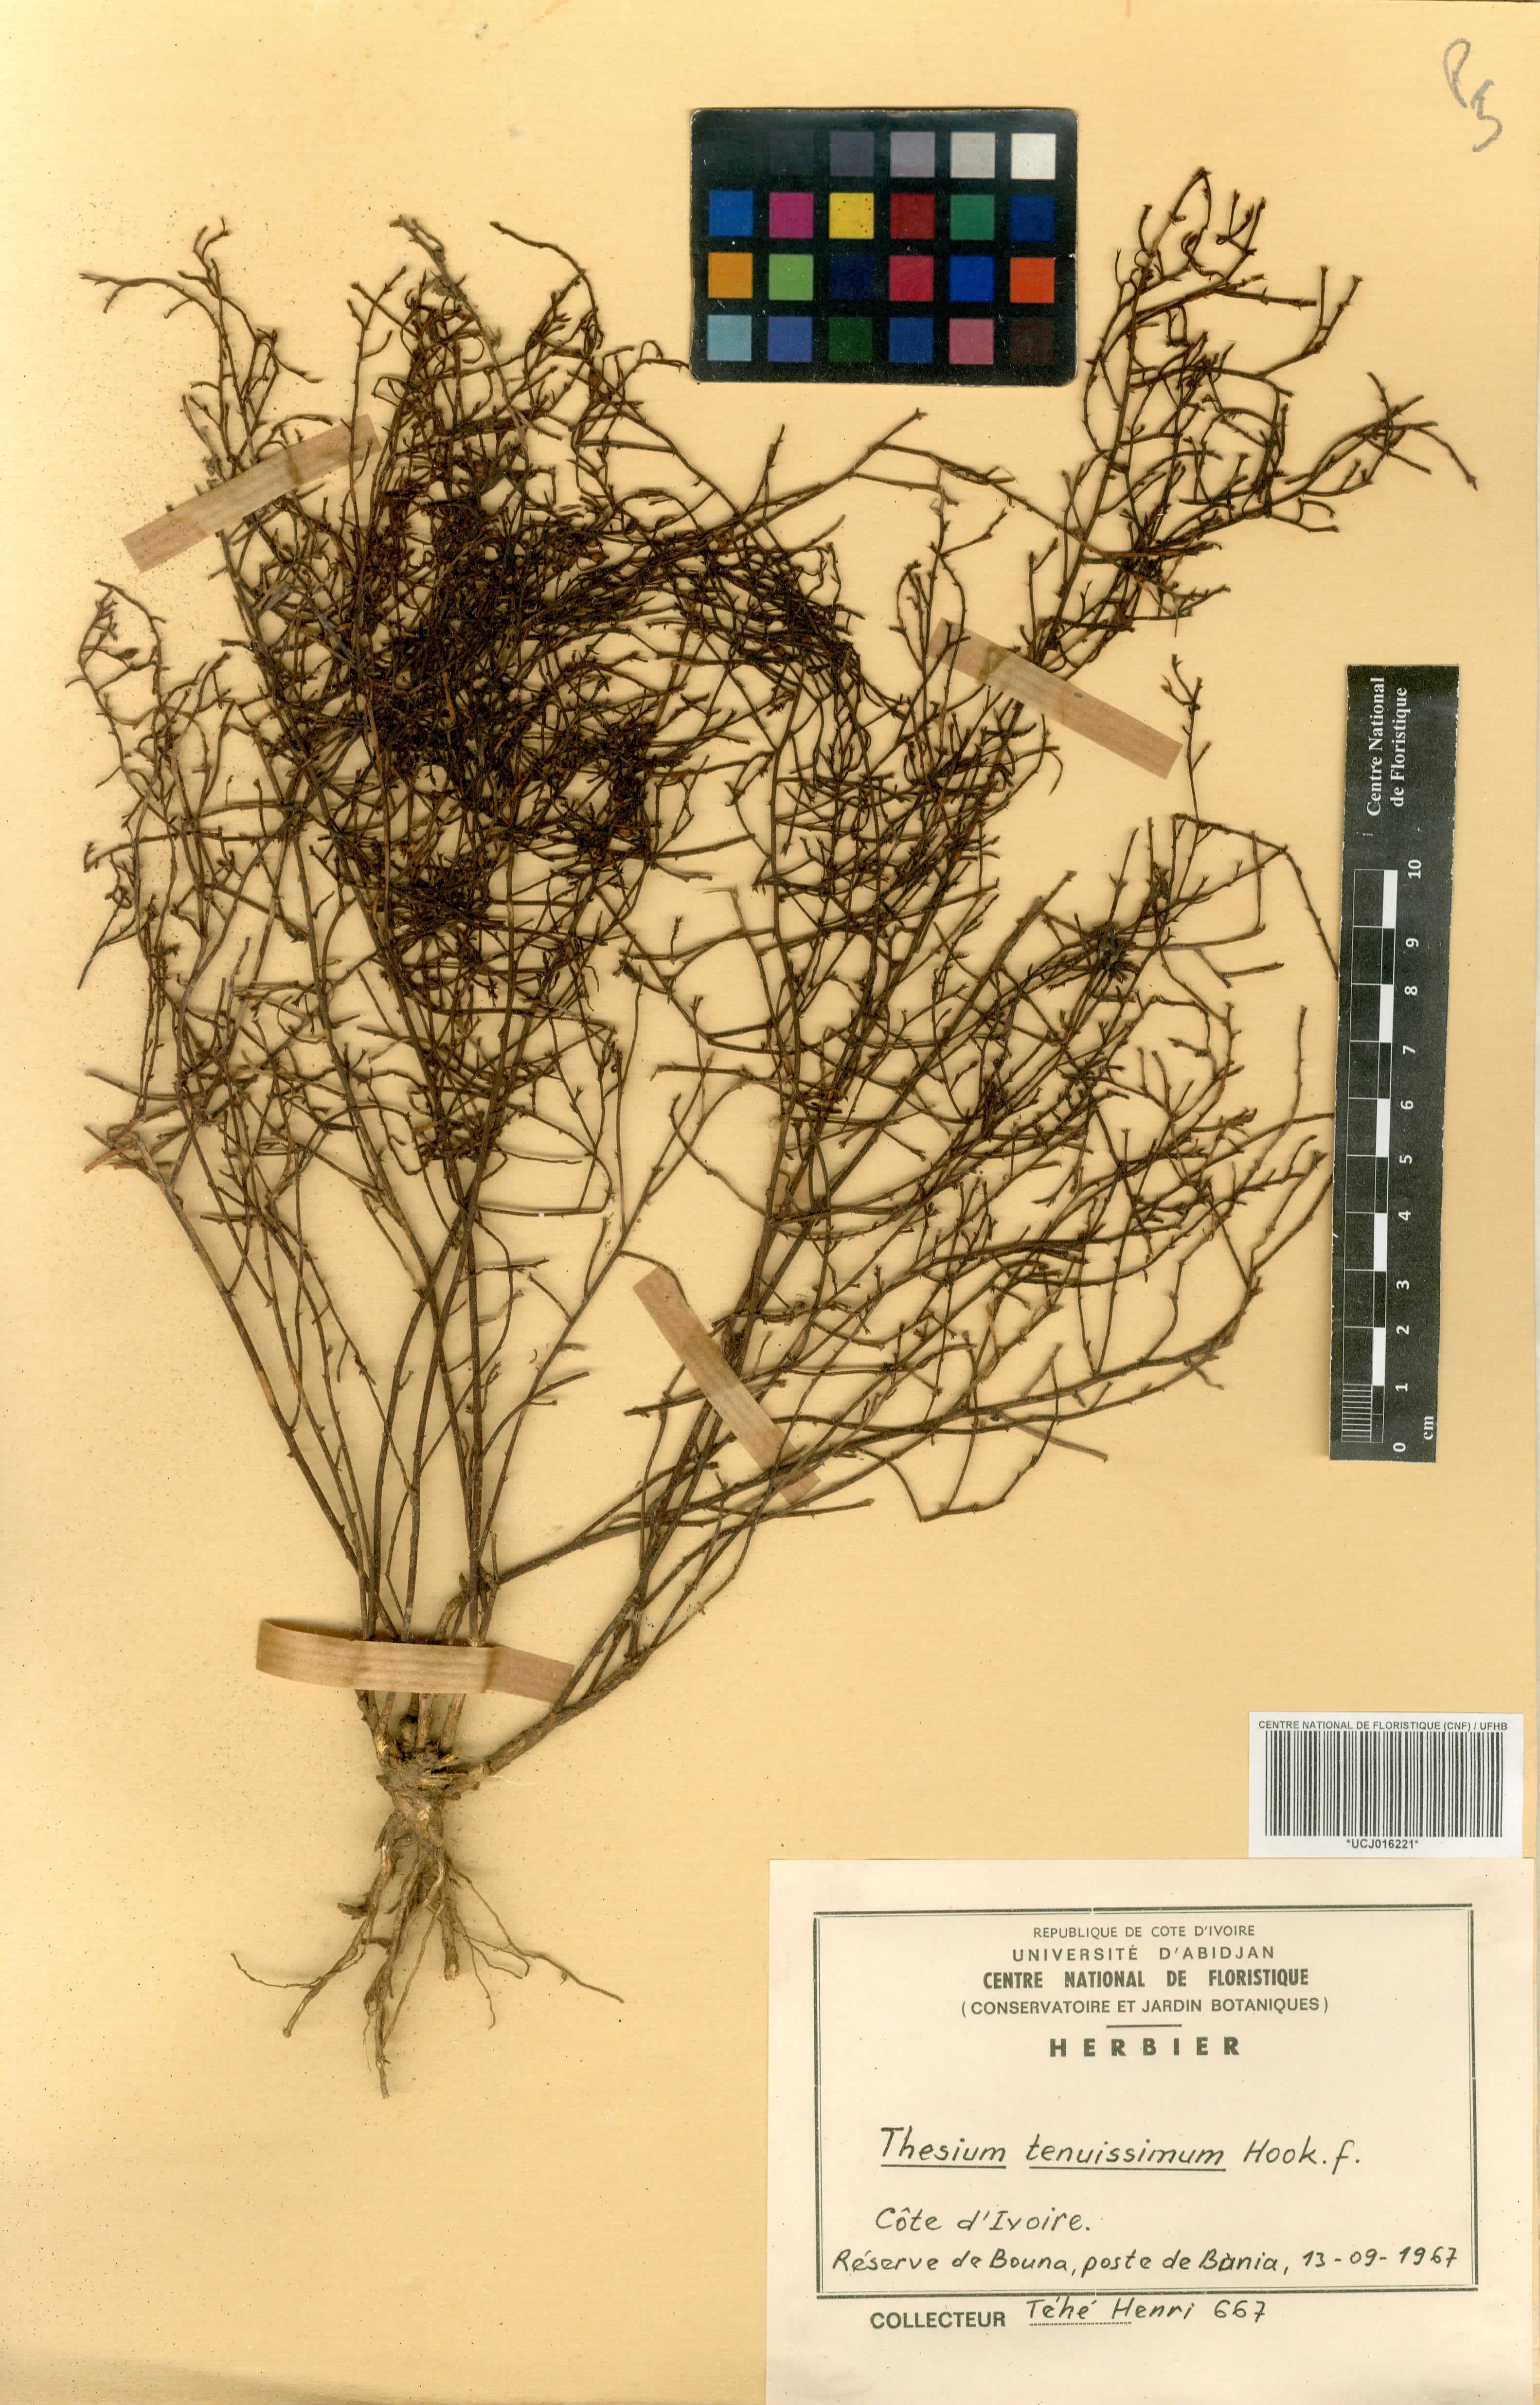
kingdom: Plantae
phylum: Tracheophyta
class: Magnoliopsida
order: Santalales
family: Thesiaceae
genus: Thesium
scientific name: Thesium tenuissimum
